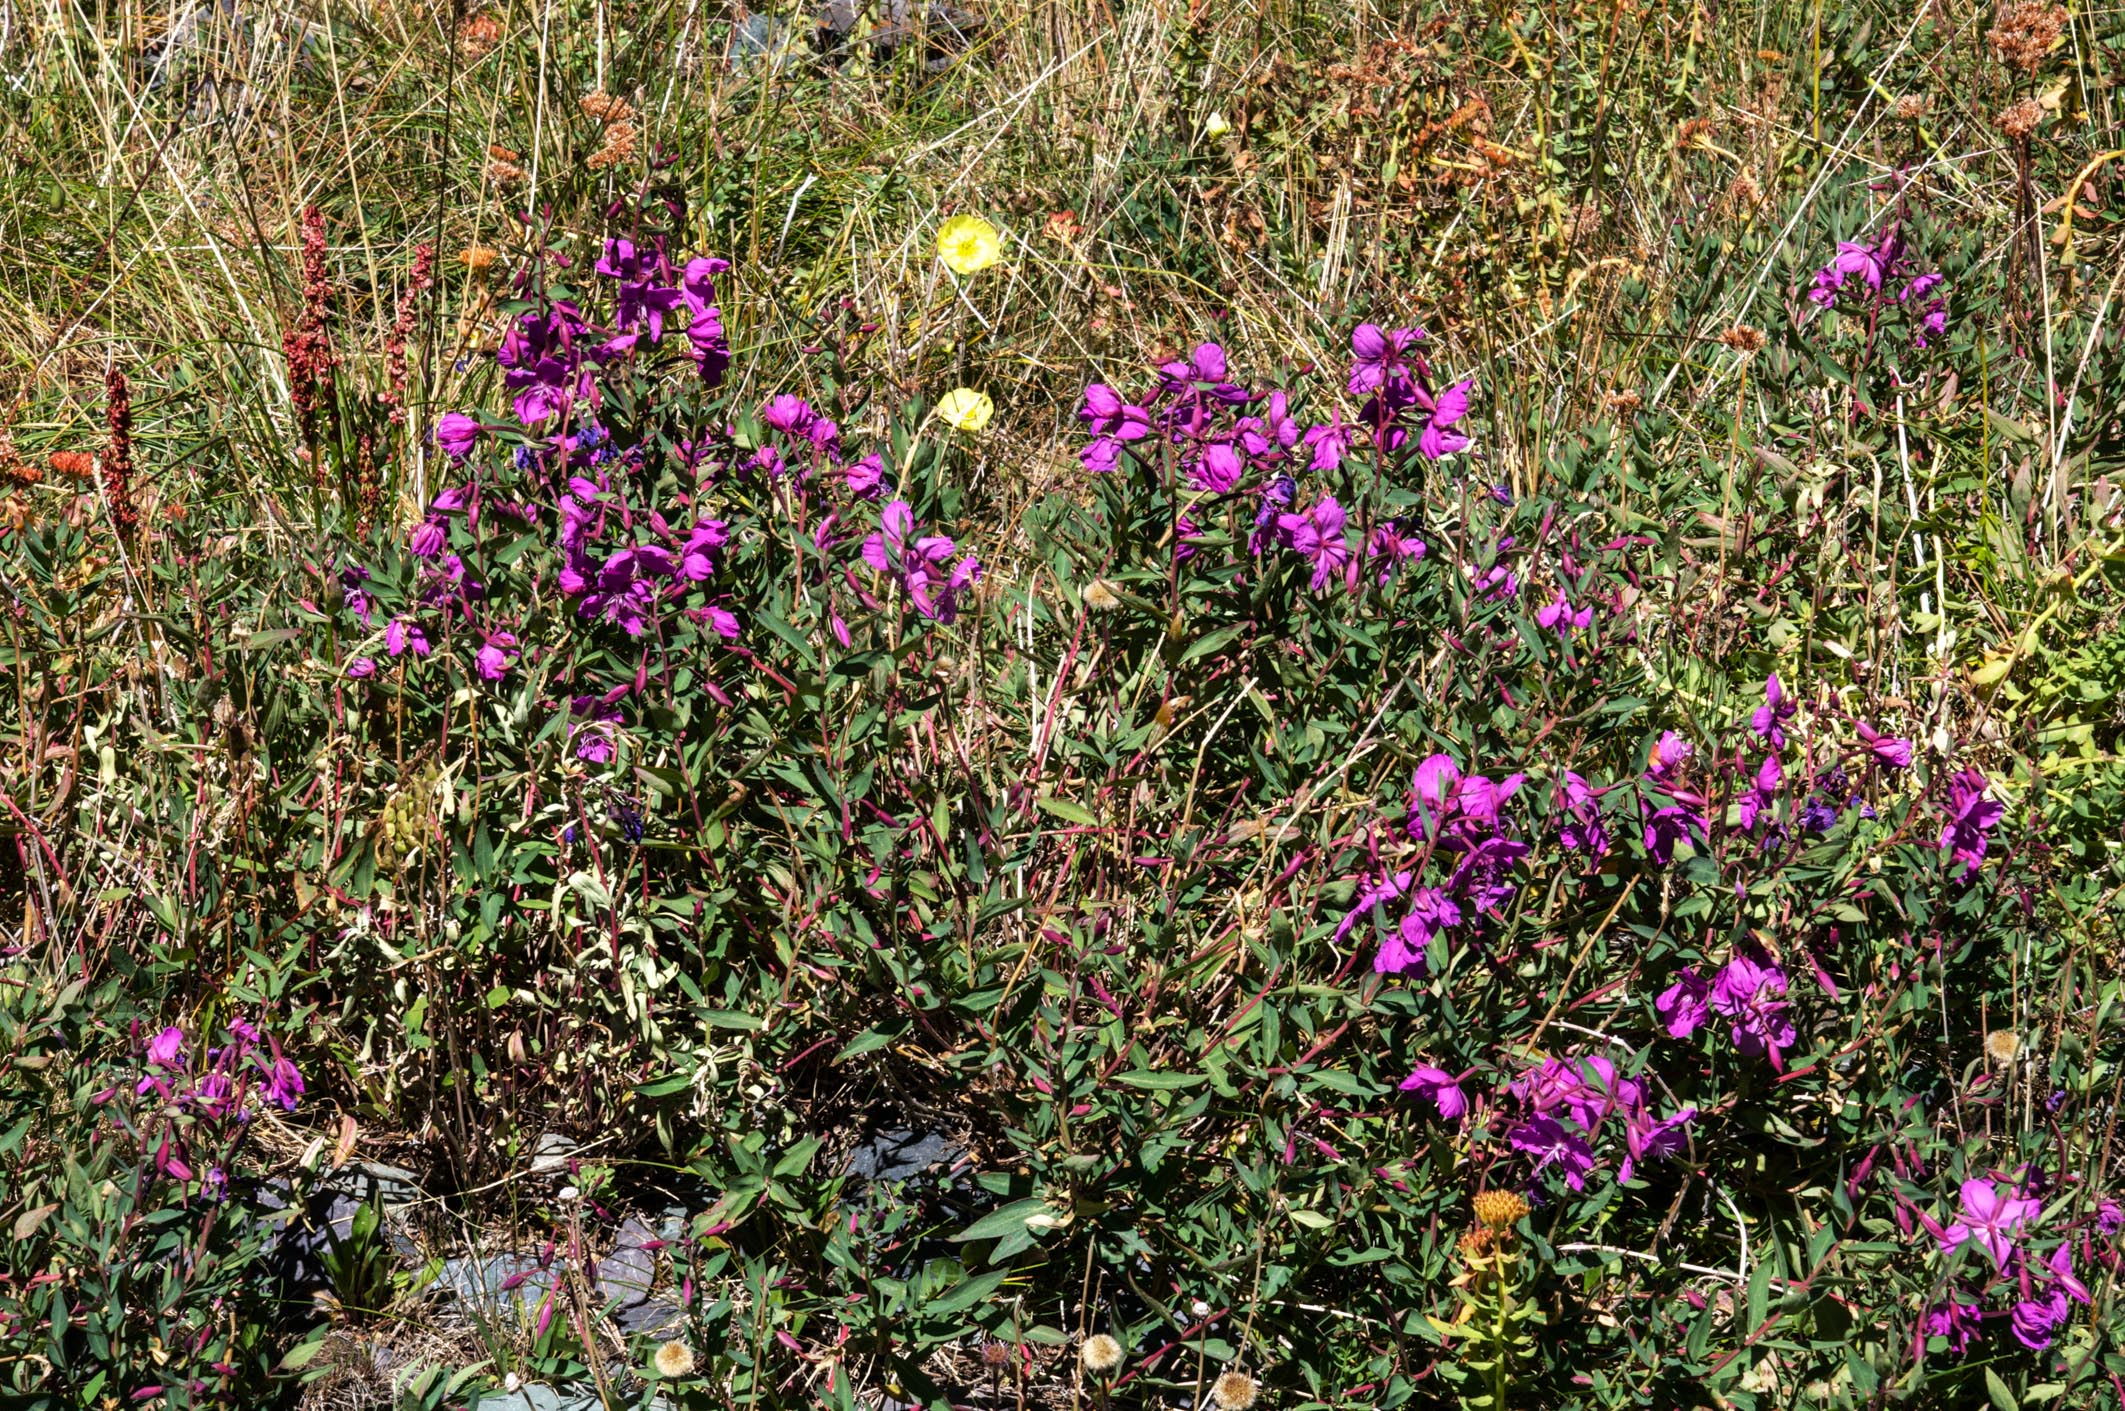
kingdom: Plantae
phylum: Tracheophyta
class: Magnoliopsida
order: Myrtales
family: Onagraceae
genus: Chamaenerion
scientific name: Chamaenerion latifolium
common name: Dwarf fireweed
